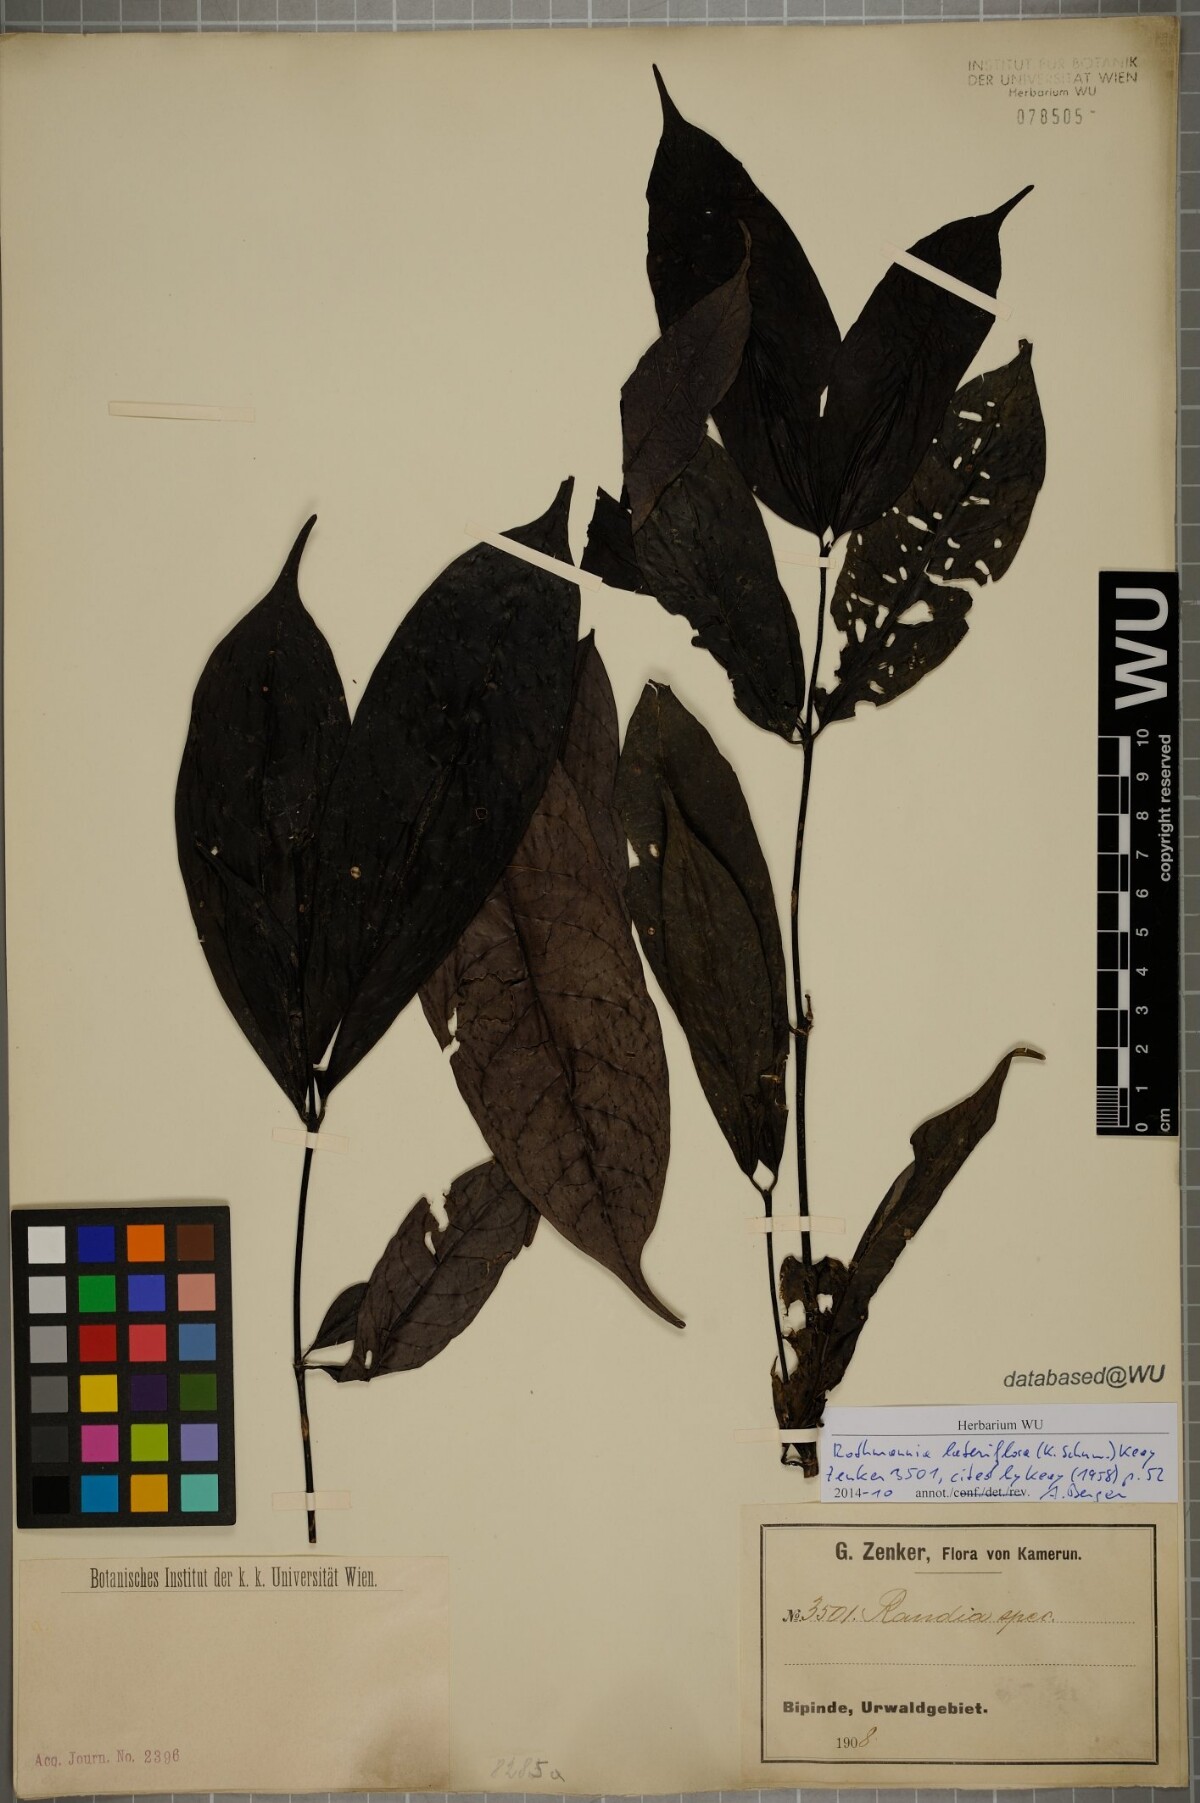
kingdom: Plantae
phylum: Tracheophyta
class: Magnoliopsida
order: Gentianales
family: Rubiaceae
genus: Rothmannia
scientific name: Rothmannia lateriflora
